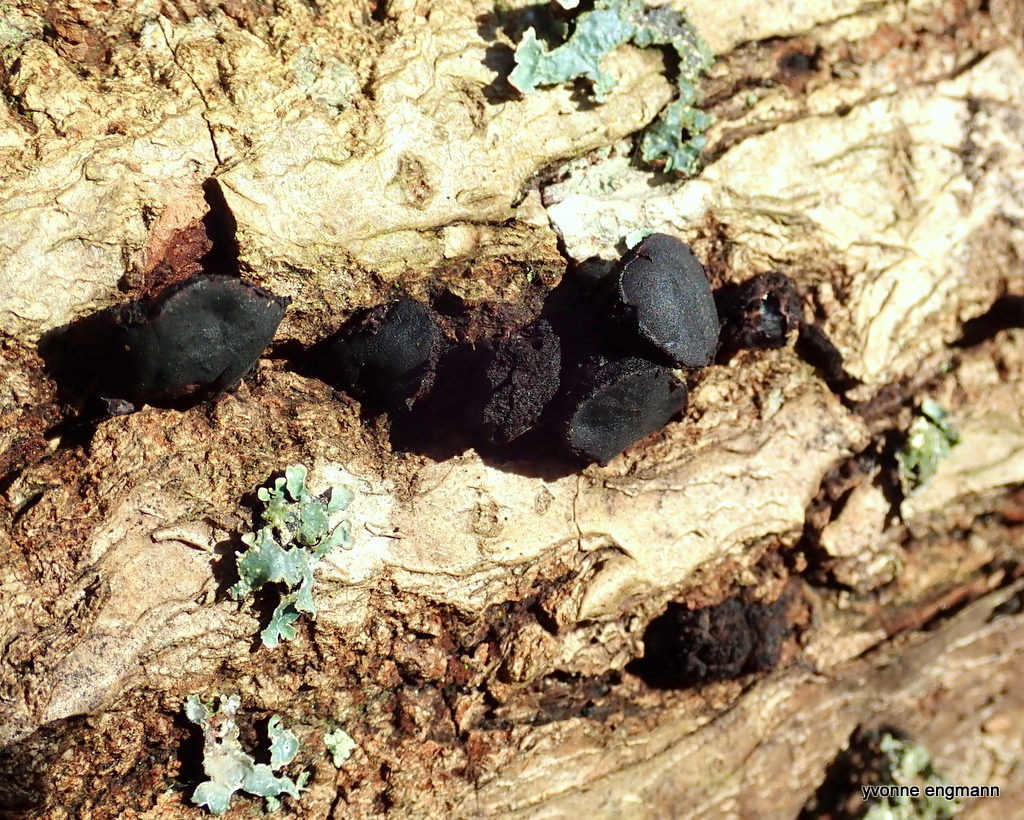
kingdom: Fungi
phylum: Ascomycota
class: Leotiomycetes
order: Phacidiales
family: Phacidiaceae
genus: Bulgaria
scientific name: Bulgaria inquinans
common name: afsmittende topsvamp
